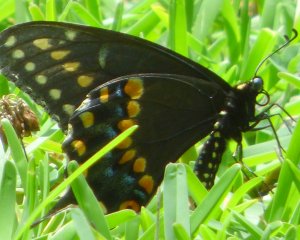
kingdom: Animalia
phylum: Arthropoda
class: Insecta
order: Lepidoptera
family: Papilionidae
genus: Papilio
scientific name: Papilio polyxenes
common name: Black Swallowtail
